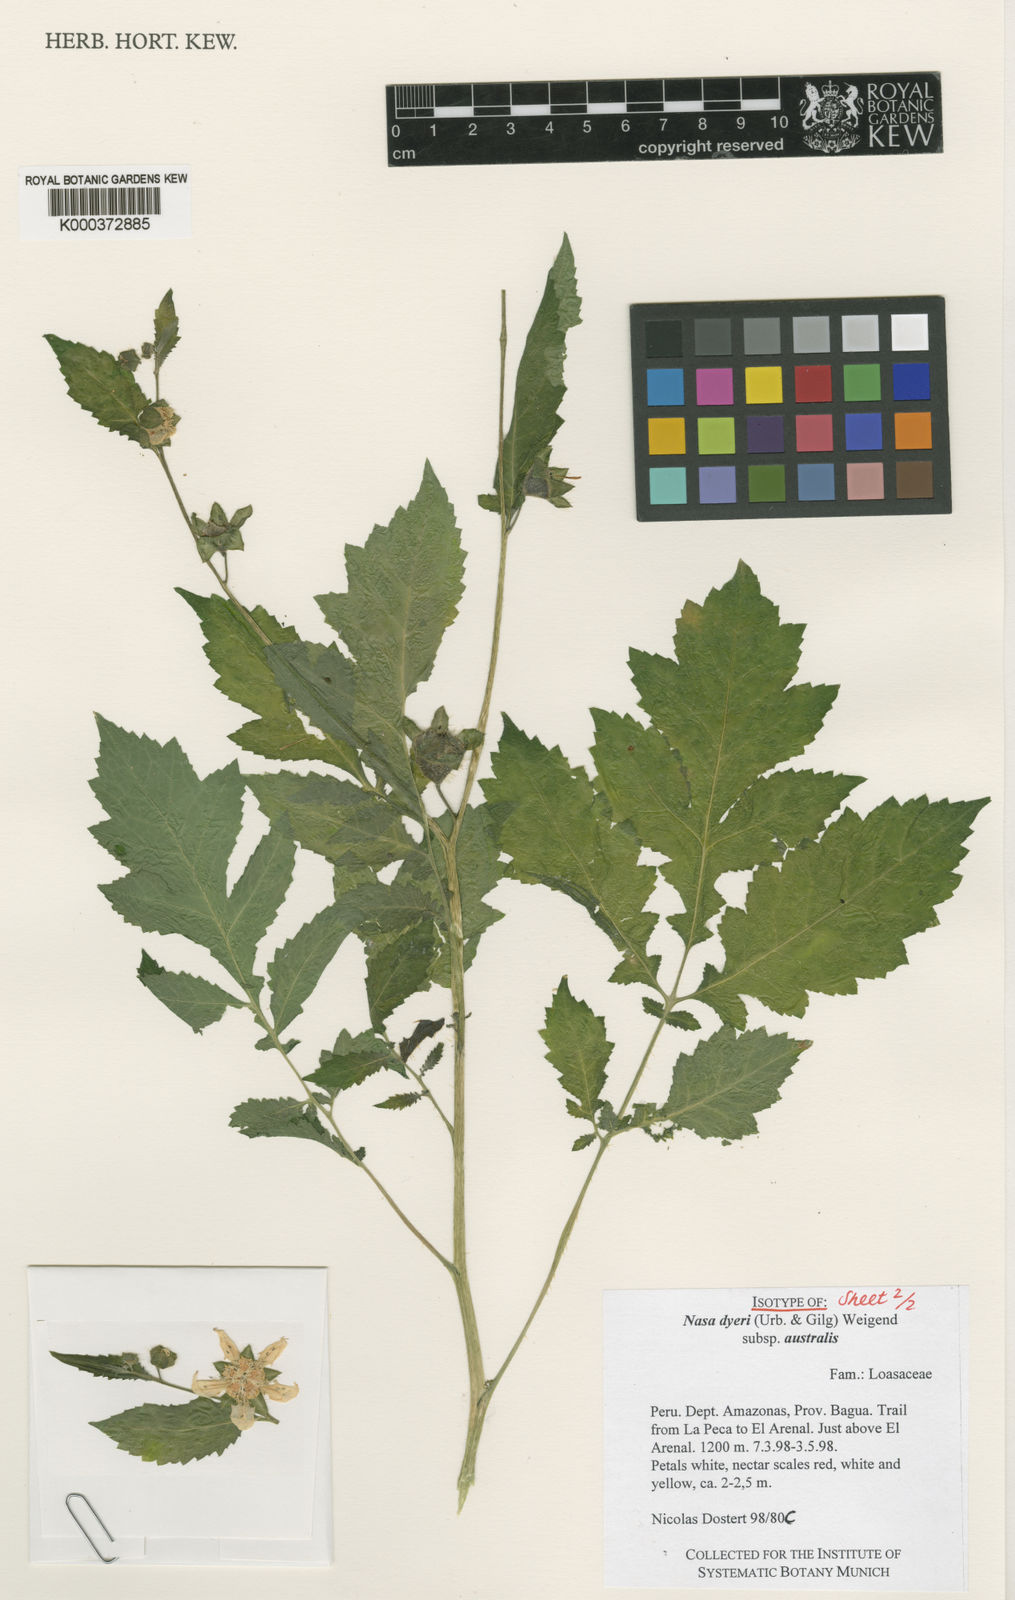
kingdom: Plantae
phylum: Tracheophyta
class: Magnoliopsida
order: Cornales
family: Loasaceae
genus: Nasa
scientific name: Nasa dyeri
